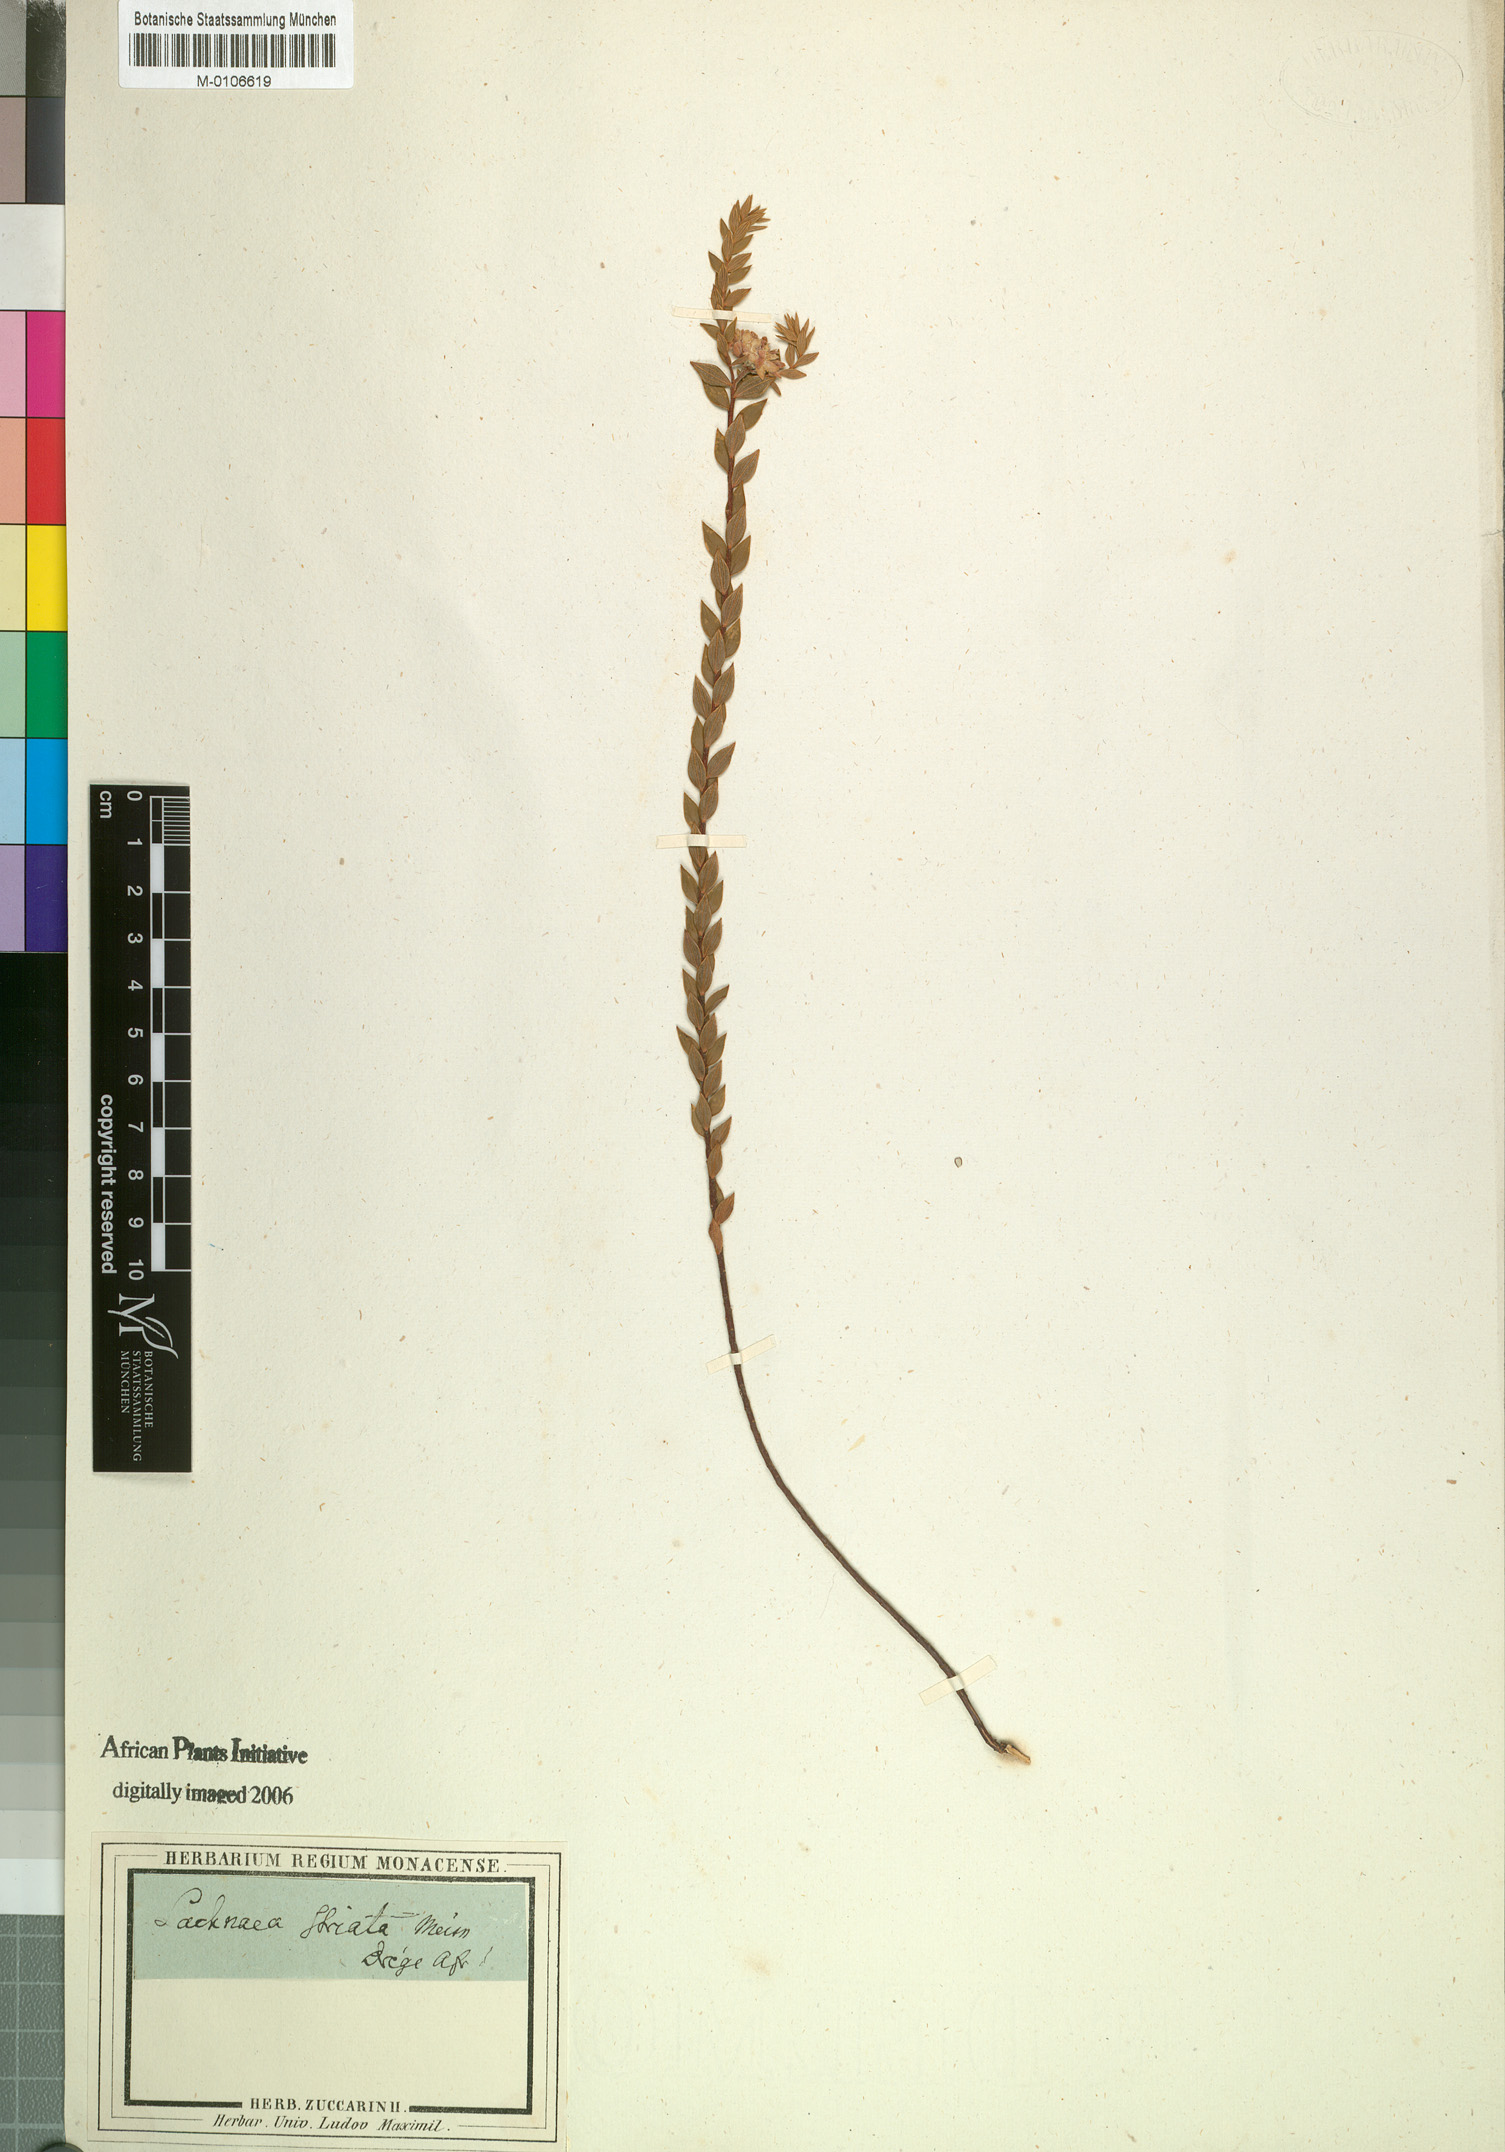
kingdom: Plantae
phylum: Tracheophyta
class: Magnoliopsida
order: Malvales
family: Thymelaeaceae
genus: Lachnaea
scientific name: Lachnaea striata
